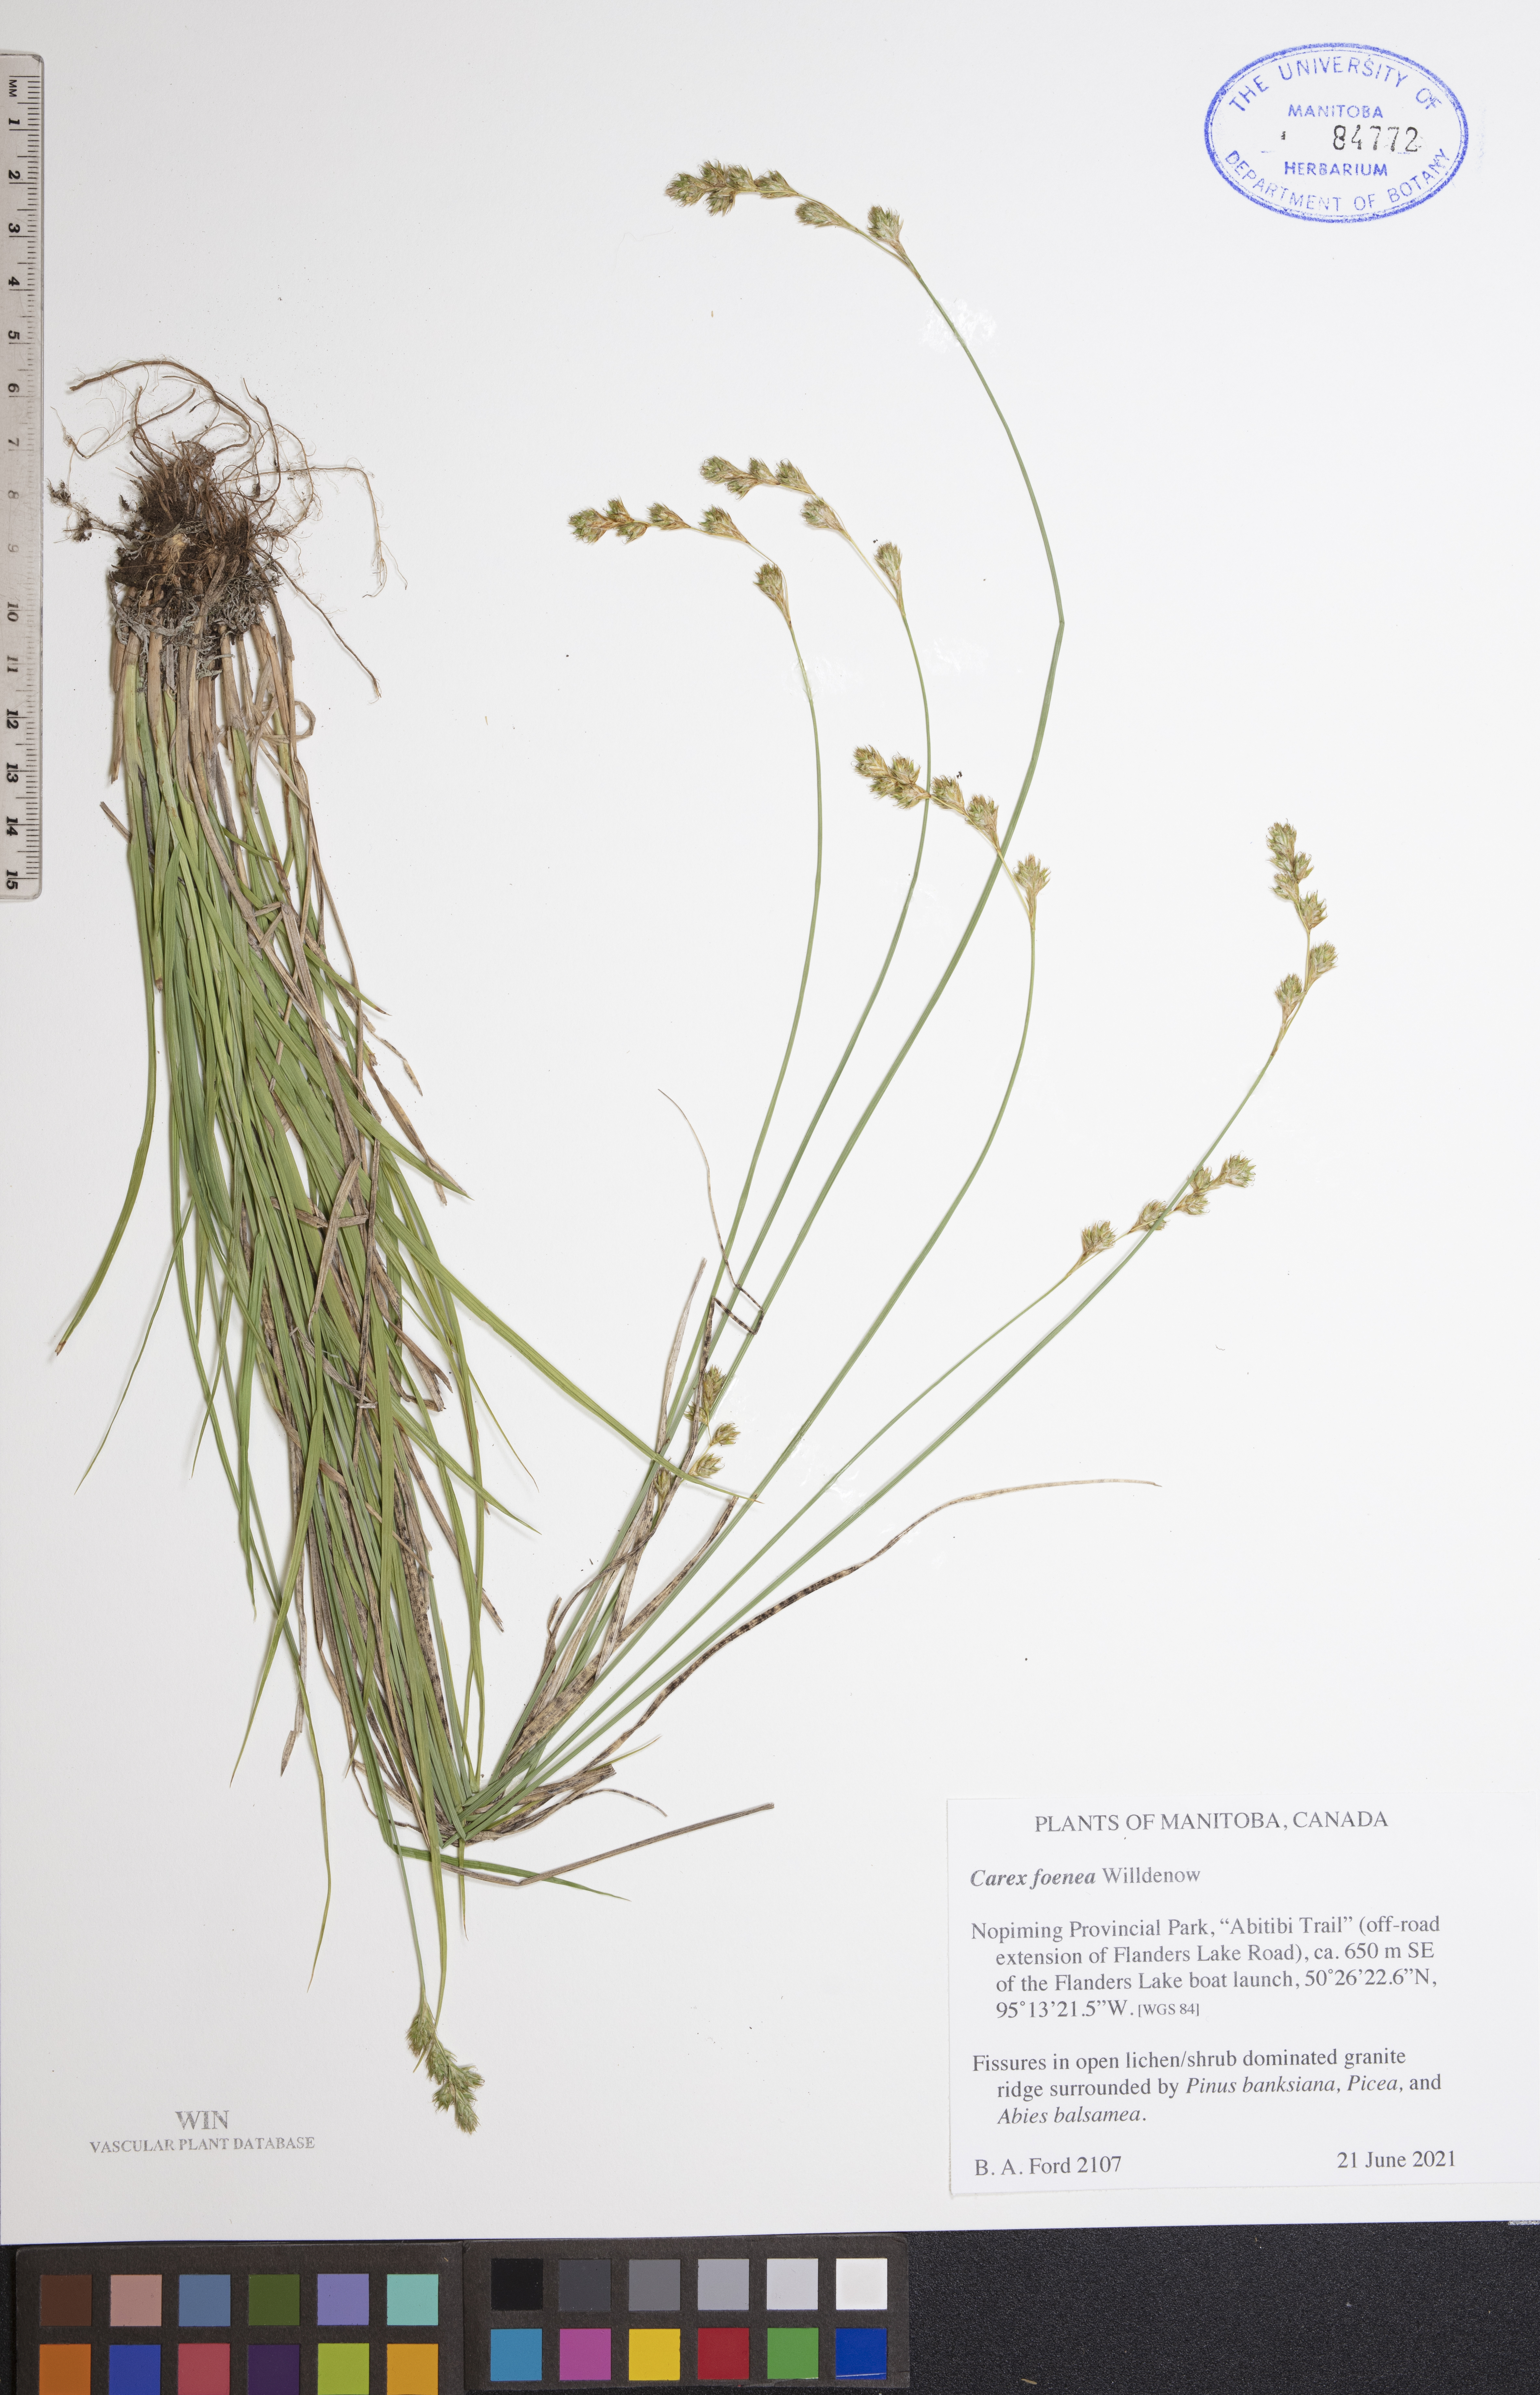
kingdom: Plantae
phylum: Tracheophyta
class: Liliopsida
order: Poales
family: Cyperaceae
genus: Carex
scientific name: Carex foenea
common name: Bronze sedge
